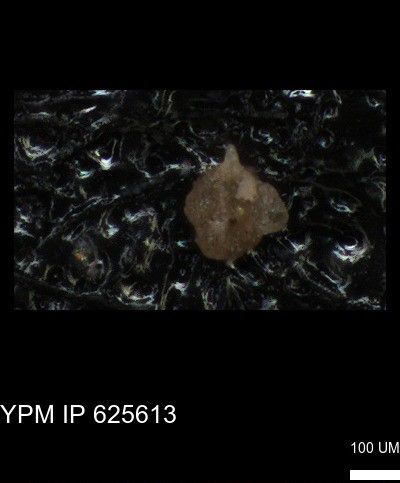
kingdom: Chromista
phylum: Foraminifera
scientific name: Foraminifera
